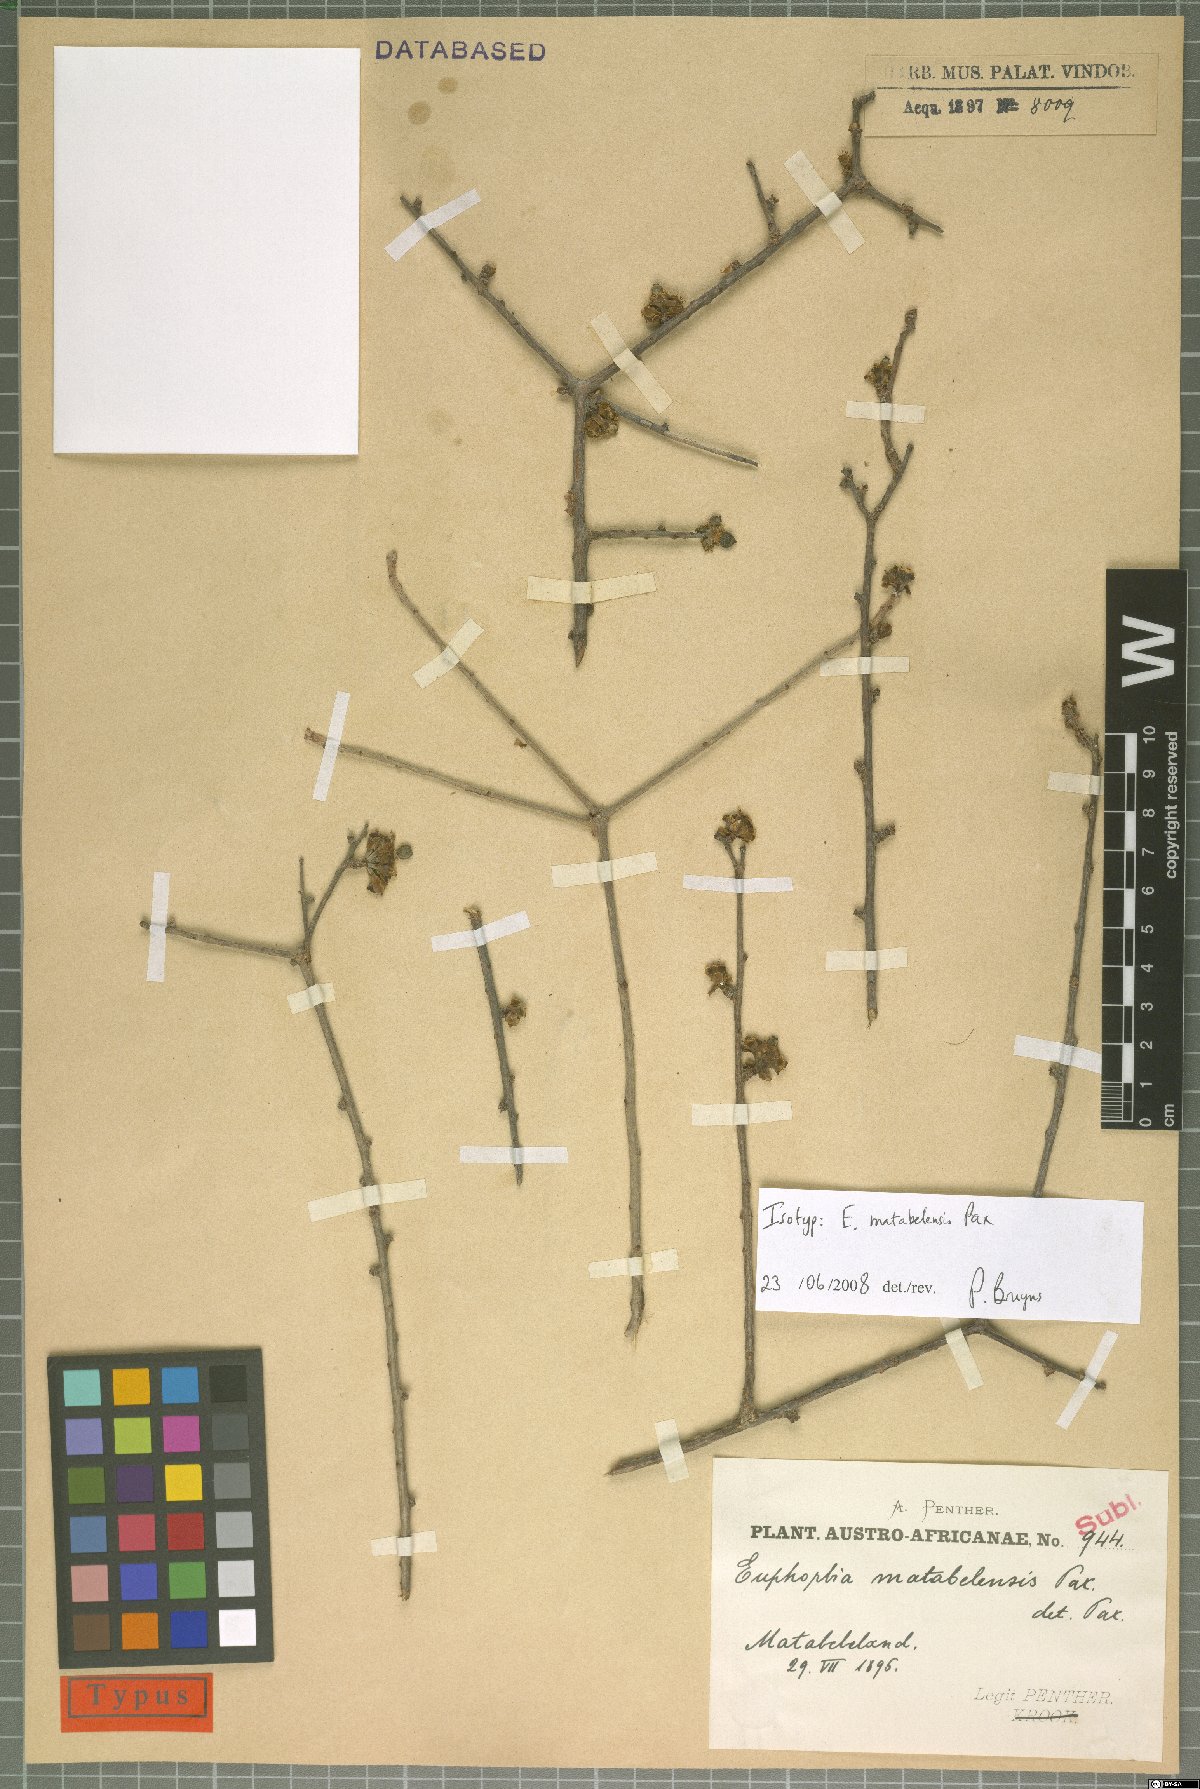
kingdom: Plantae
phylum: Tracheophyta
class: Magnoliopsida
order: Malpighiales
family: Euphorbiaceae
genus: Euphorbia
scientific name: Euphorbia matabelensis
